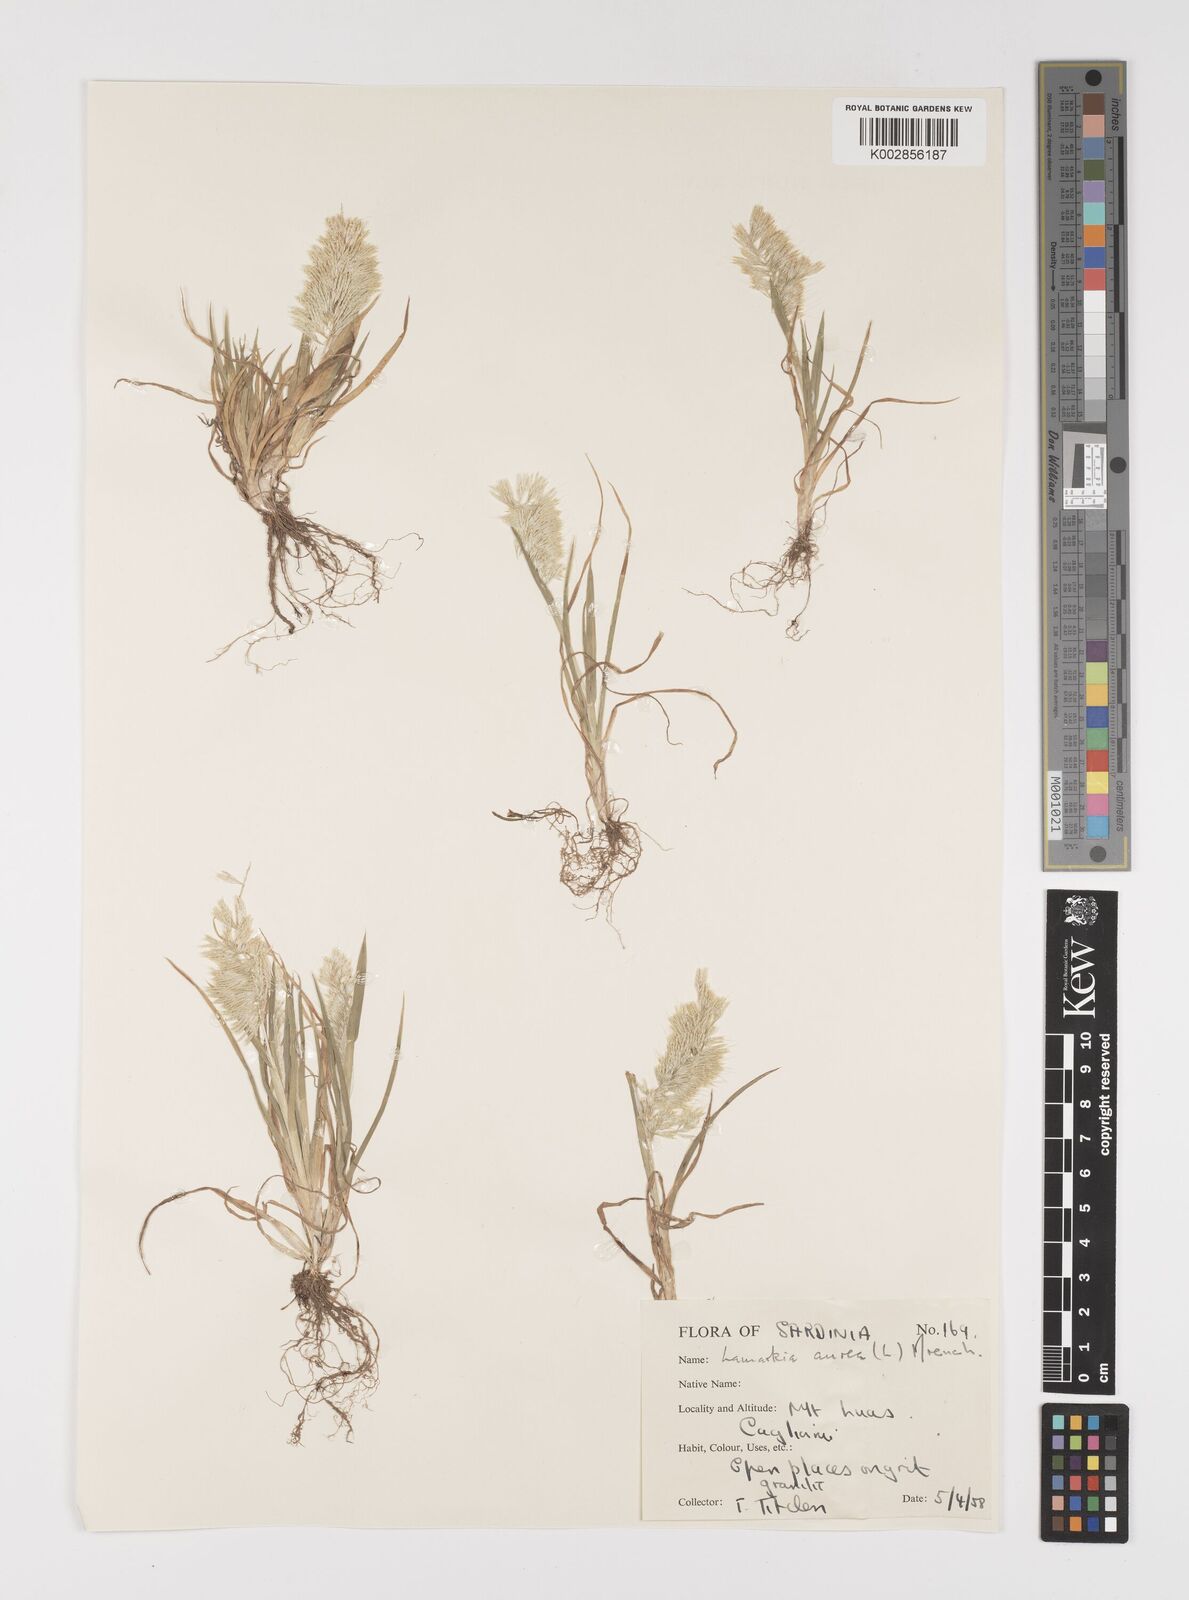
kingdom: Plantae
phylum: Tracheophyta
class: Liliopsida
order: Poales
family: Poaceae
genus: Lamarckia
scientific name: Lamarckia aurea
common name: Golden dog's-tail
